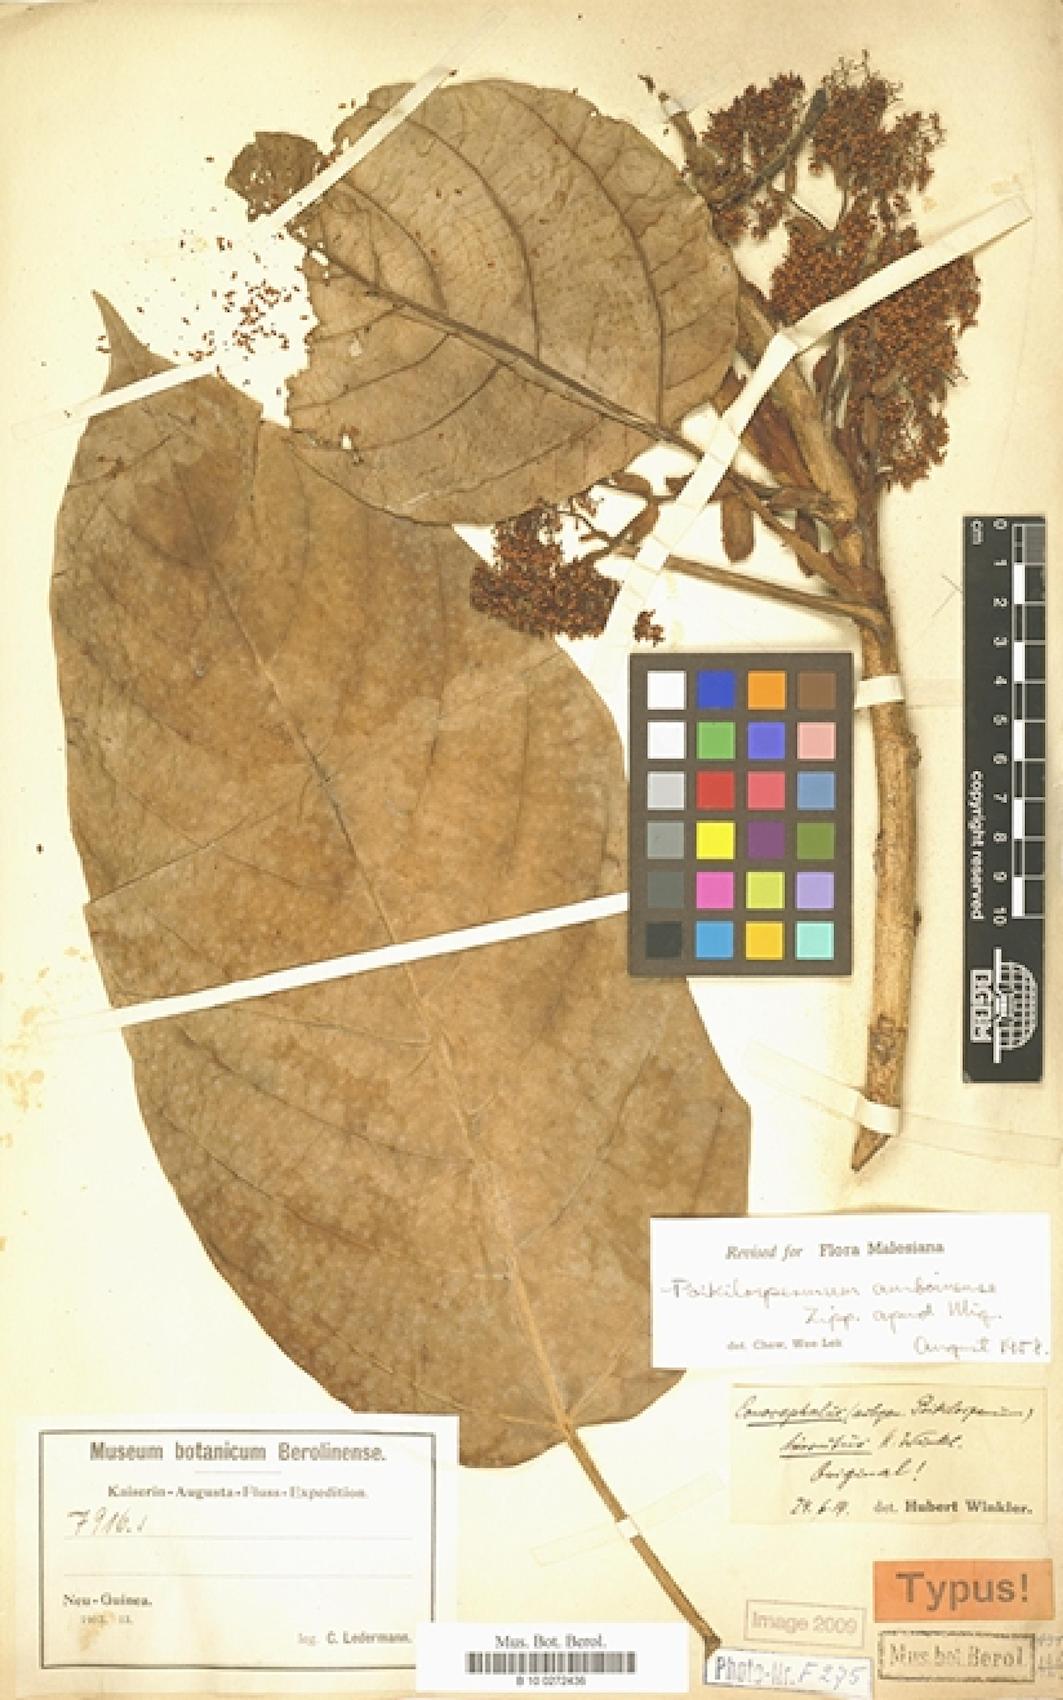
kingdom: Plantae
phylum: Tracheophyta
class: Magnoliopsida
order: Rosales
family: Urticaceae
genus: Poikilospermum
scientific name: Poikilospermum amboinense
